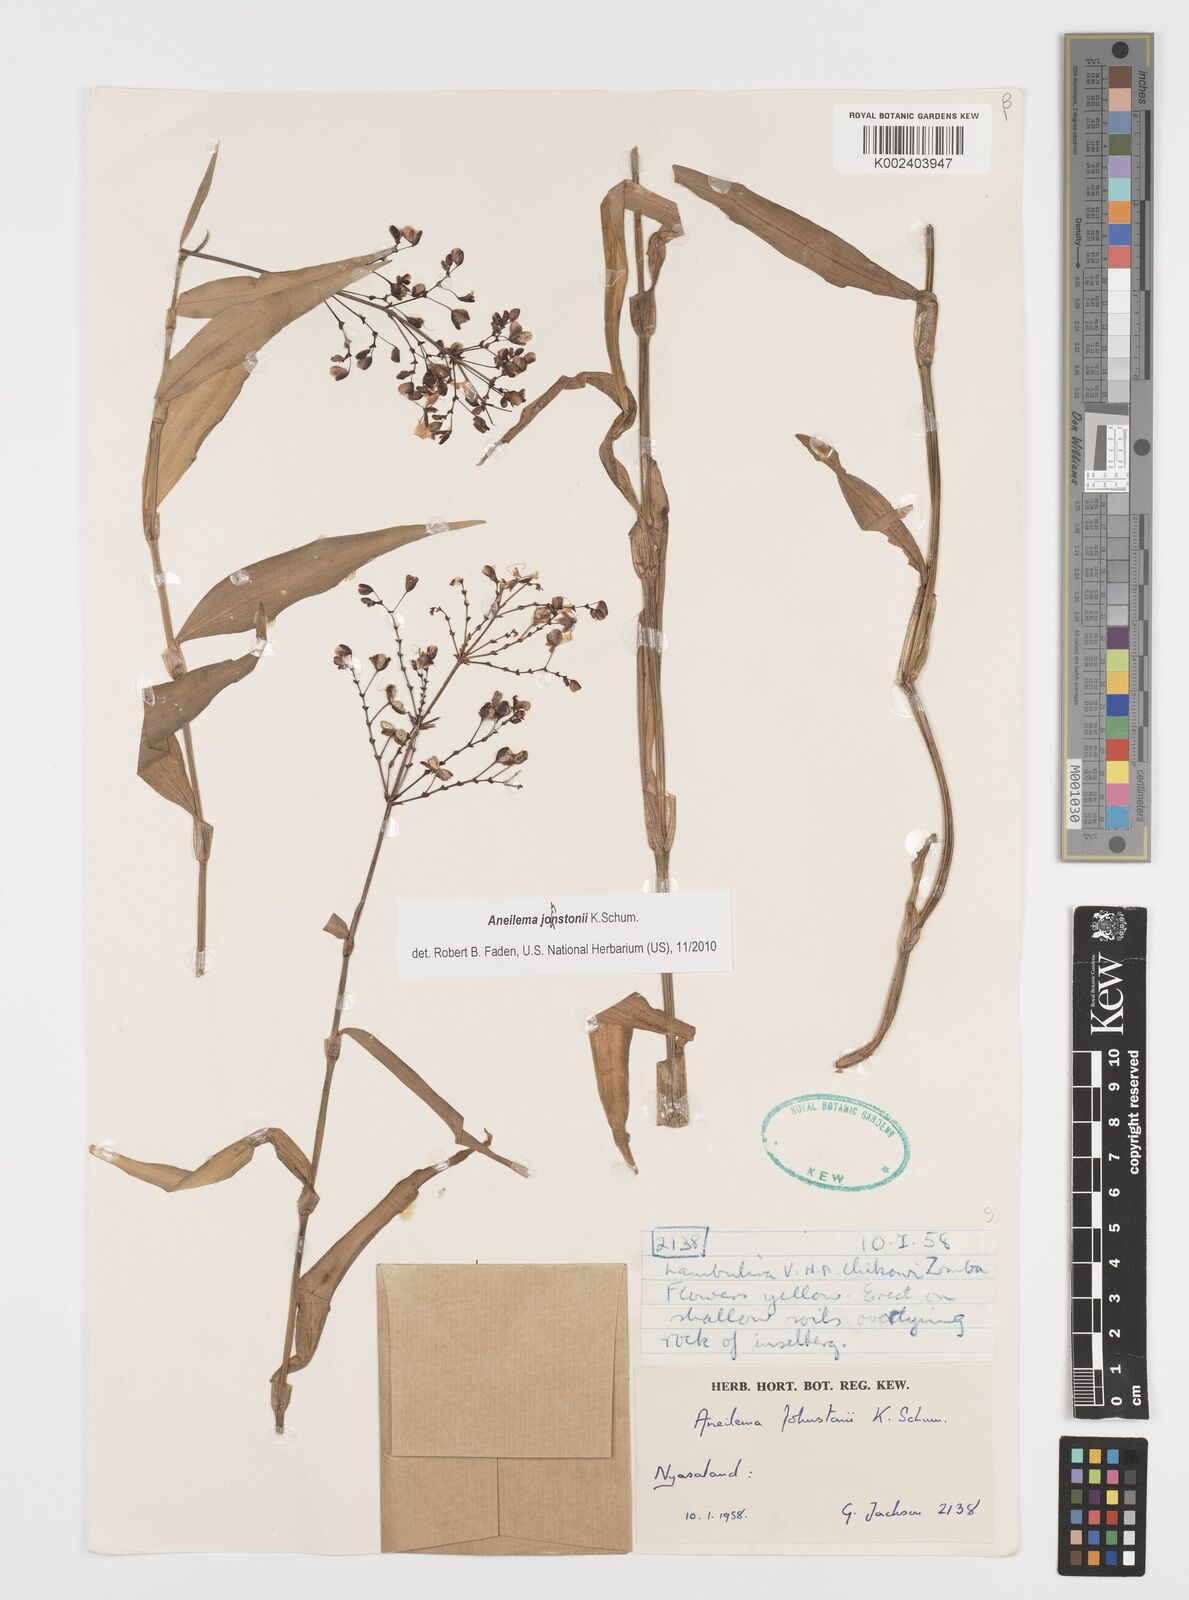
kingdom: Plantae
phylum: Tracheophyta
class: Liliopsida
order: Commelinales
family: Commelinaceae
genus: Aneilema
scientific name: Aneilema johnstonii
